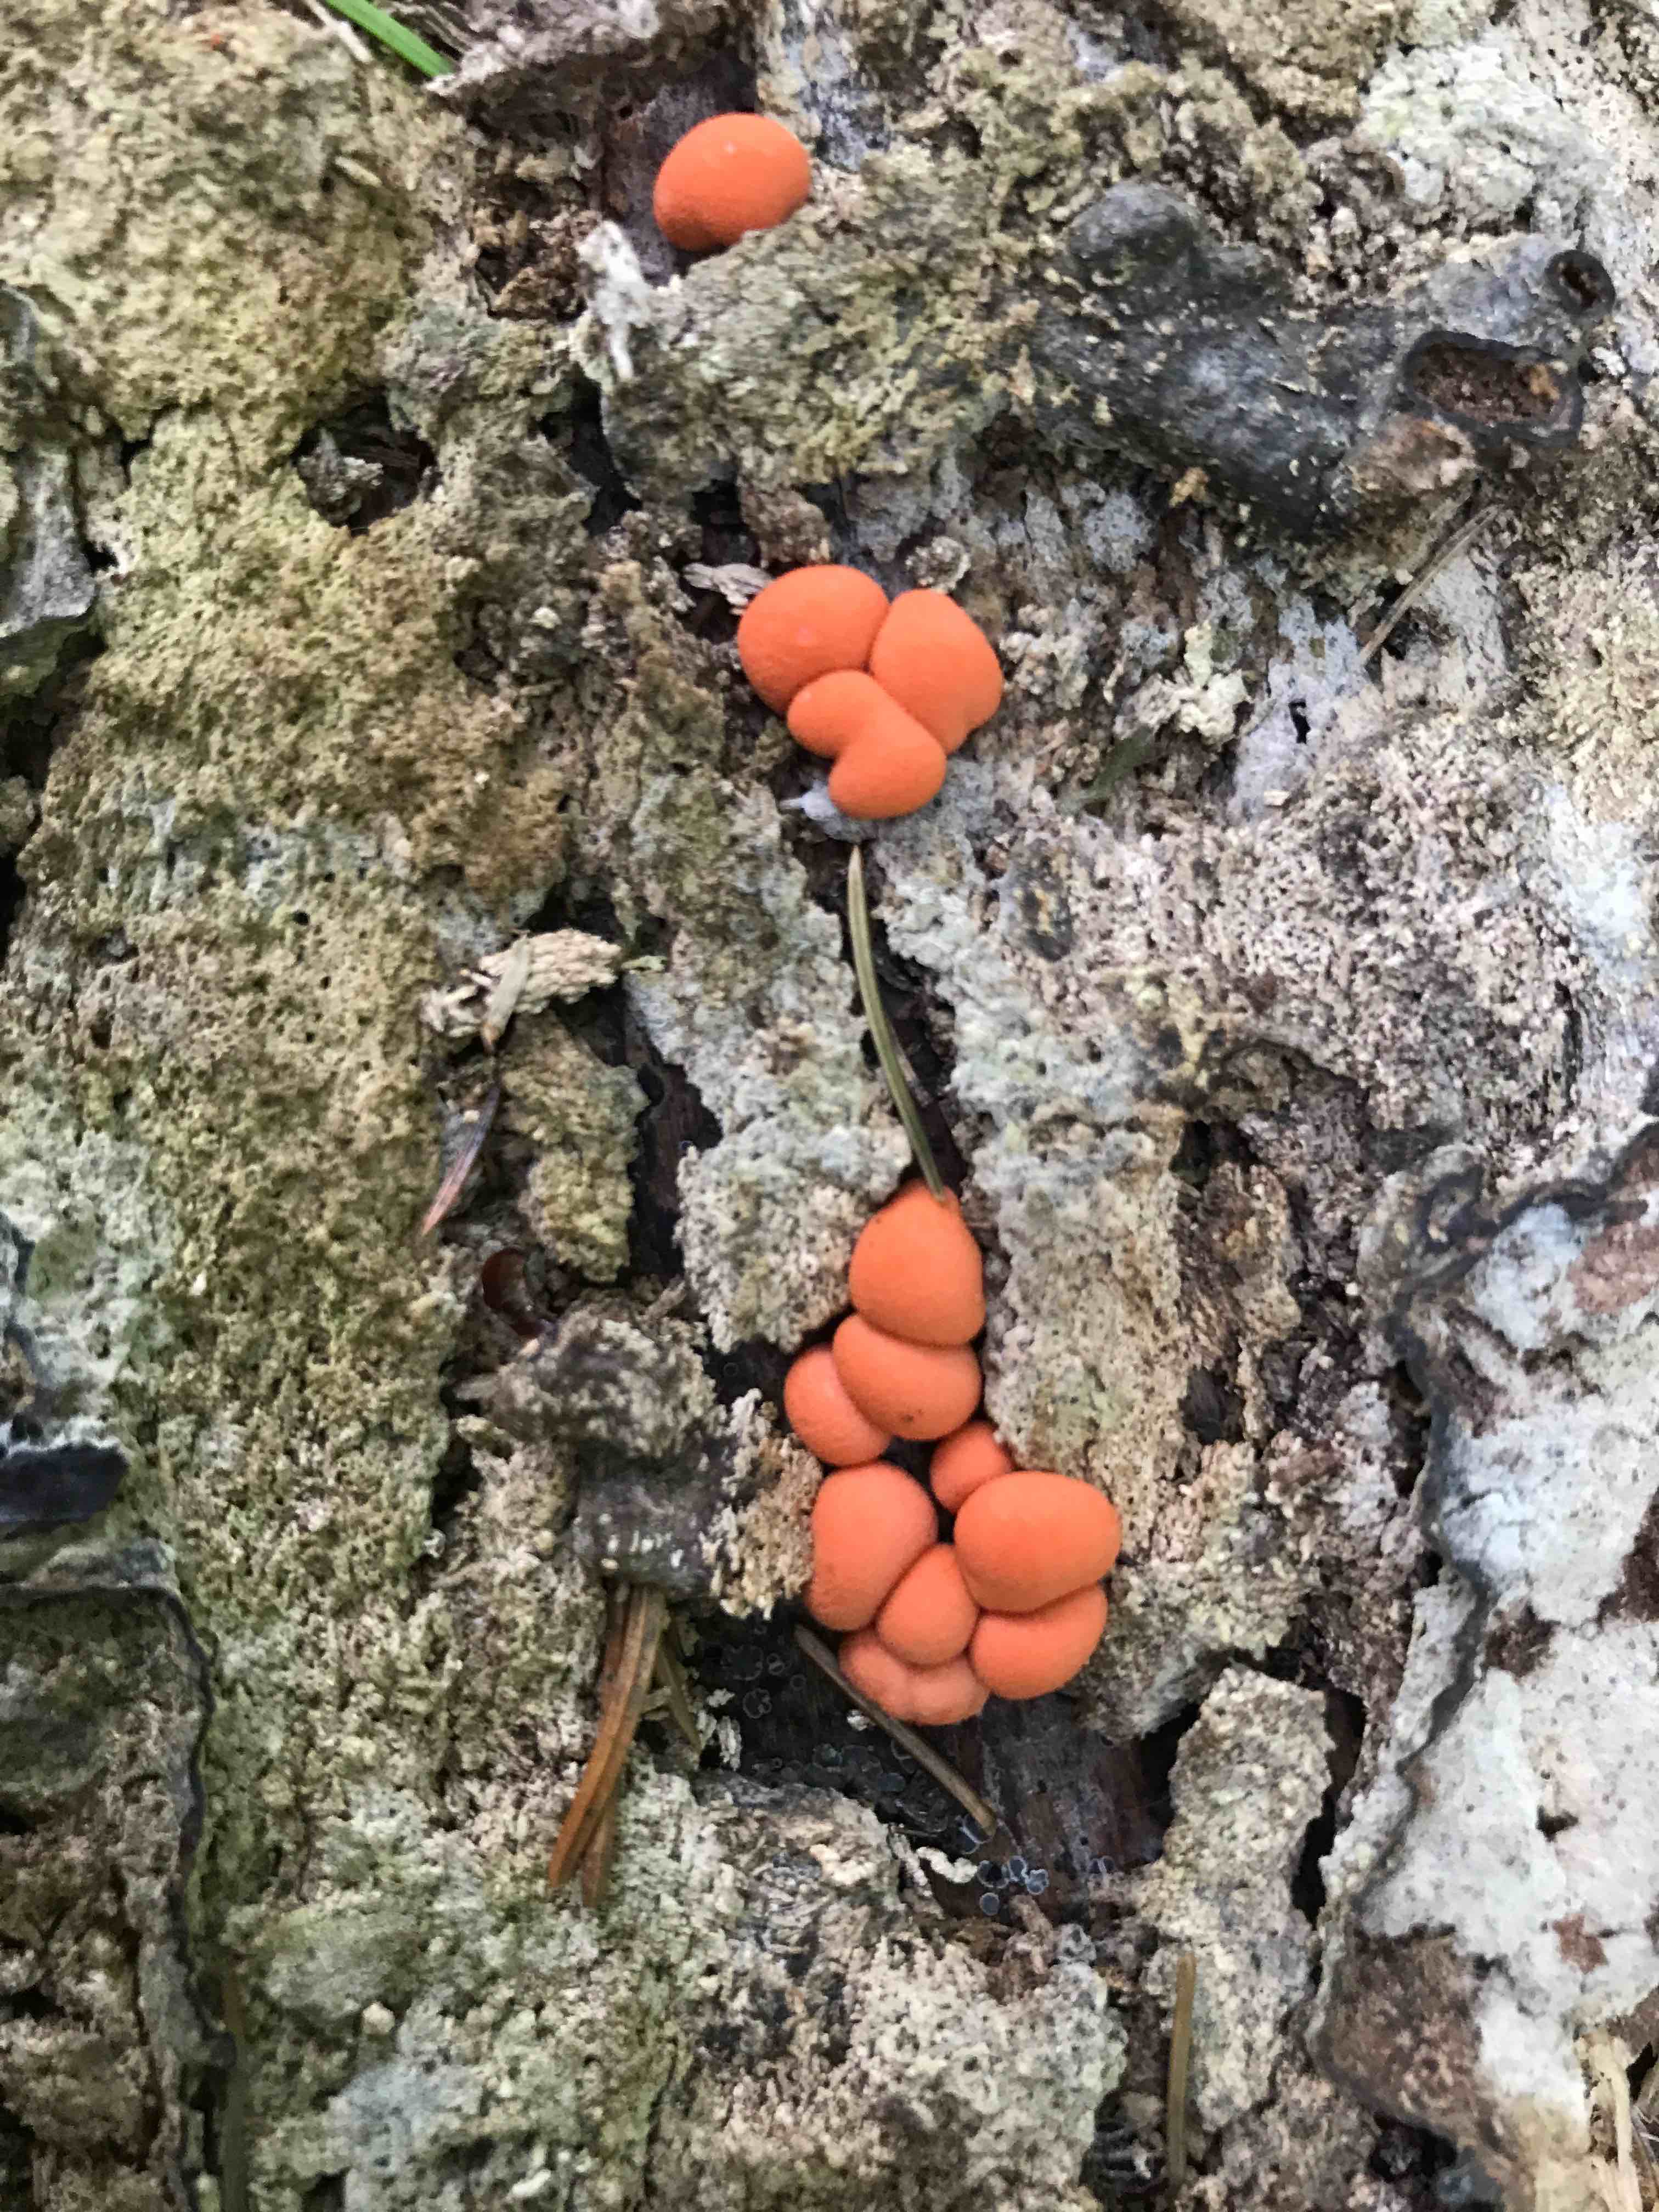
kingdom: Protozoa
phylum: Mycetozoa
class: Myxomycetes
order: Cribrariales
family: Tubiferaceae
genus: Lycogala
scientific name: Lycogala epidendrum
